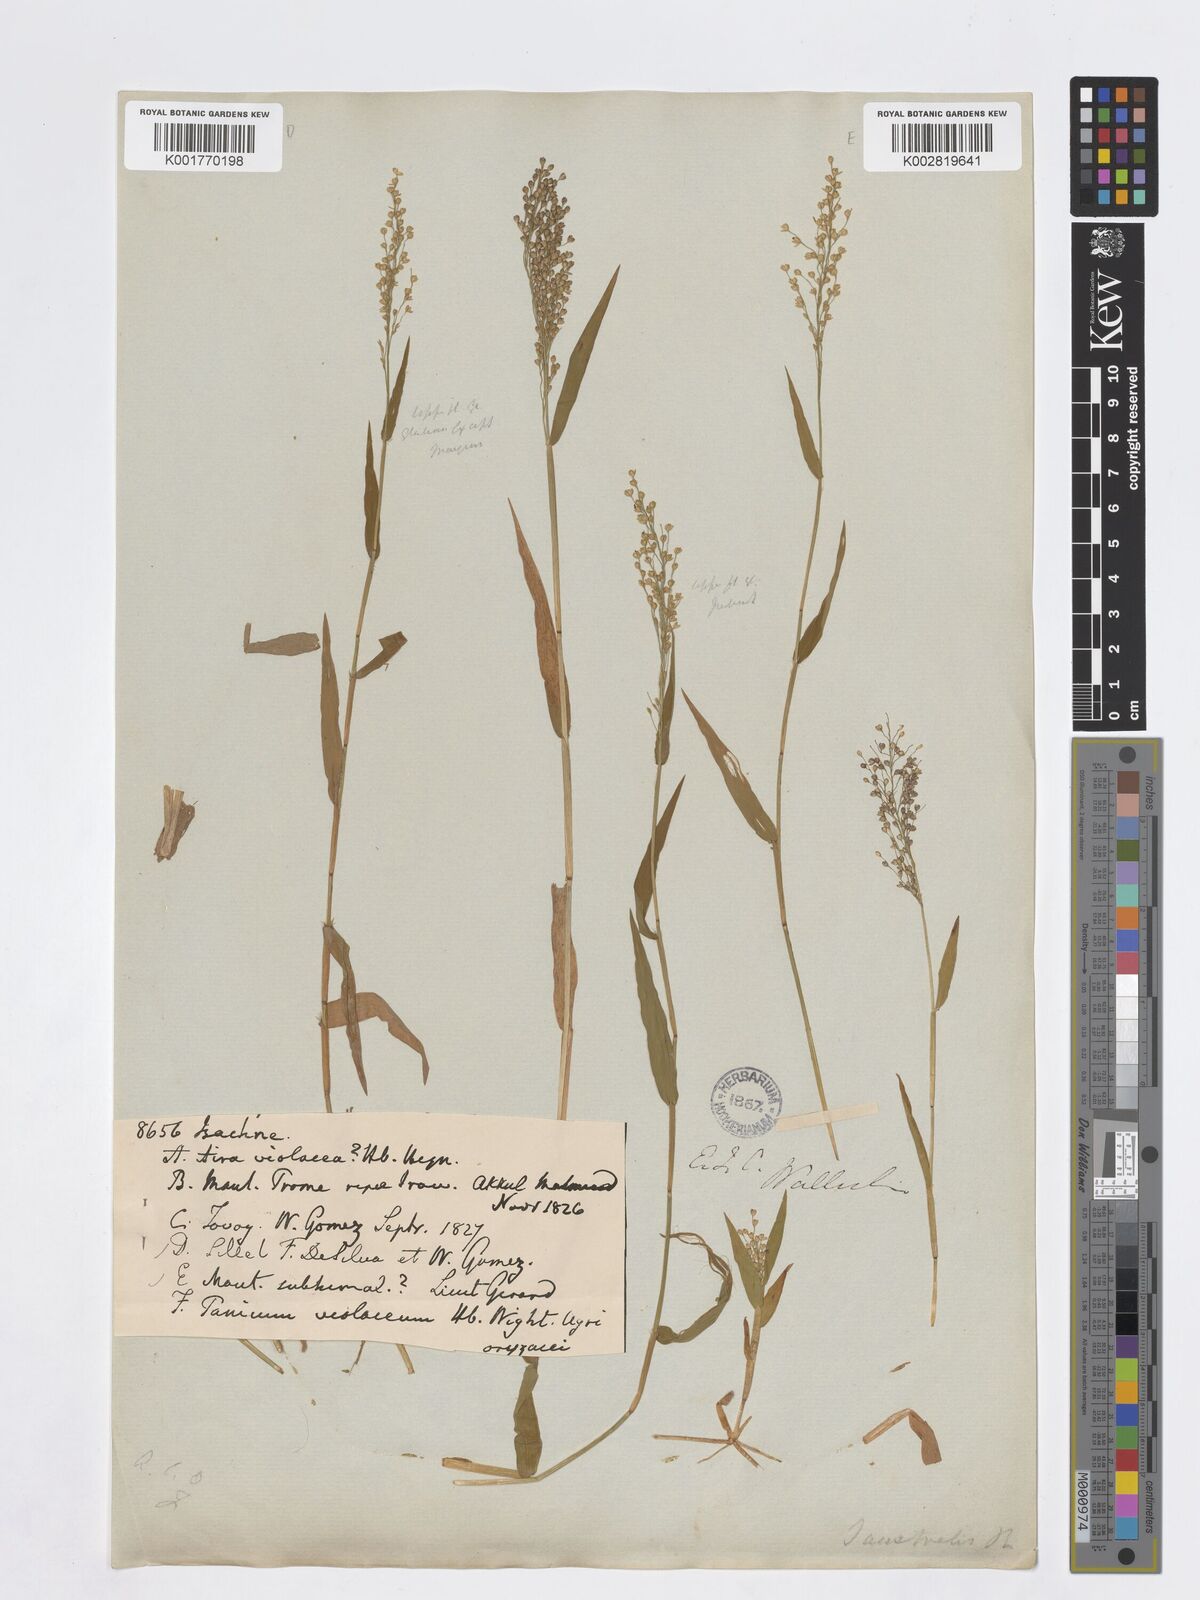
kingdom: Plantae
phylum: Tracheophyta
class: Liliopsida
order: Poales
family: Poaceae
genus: Isachne
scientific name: Isachne
